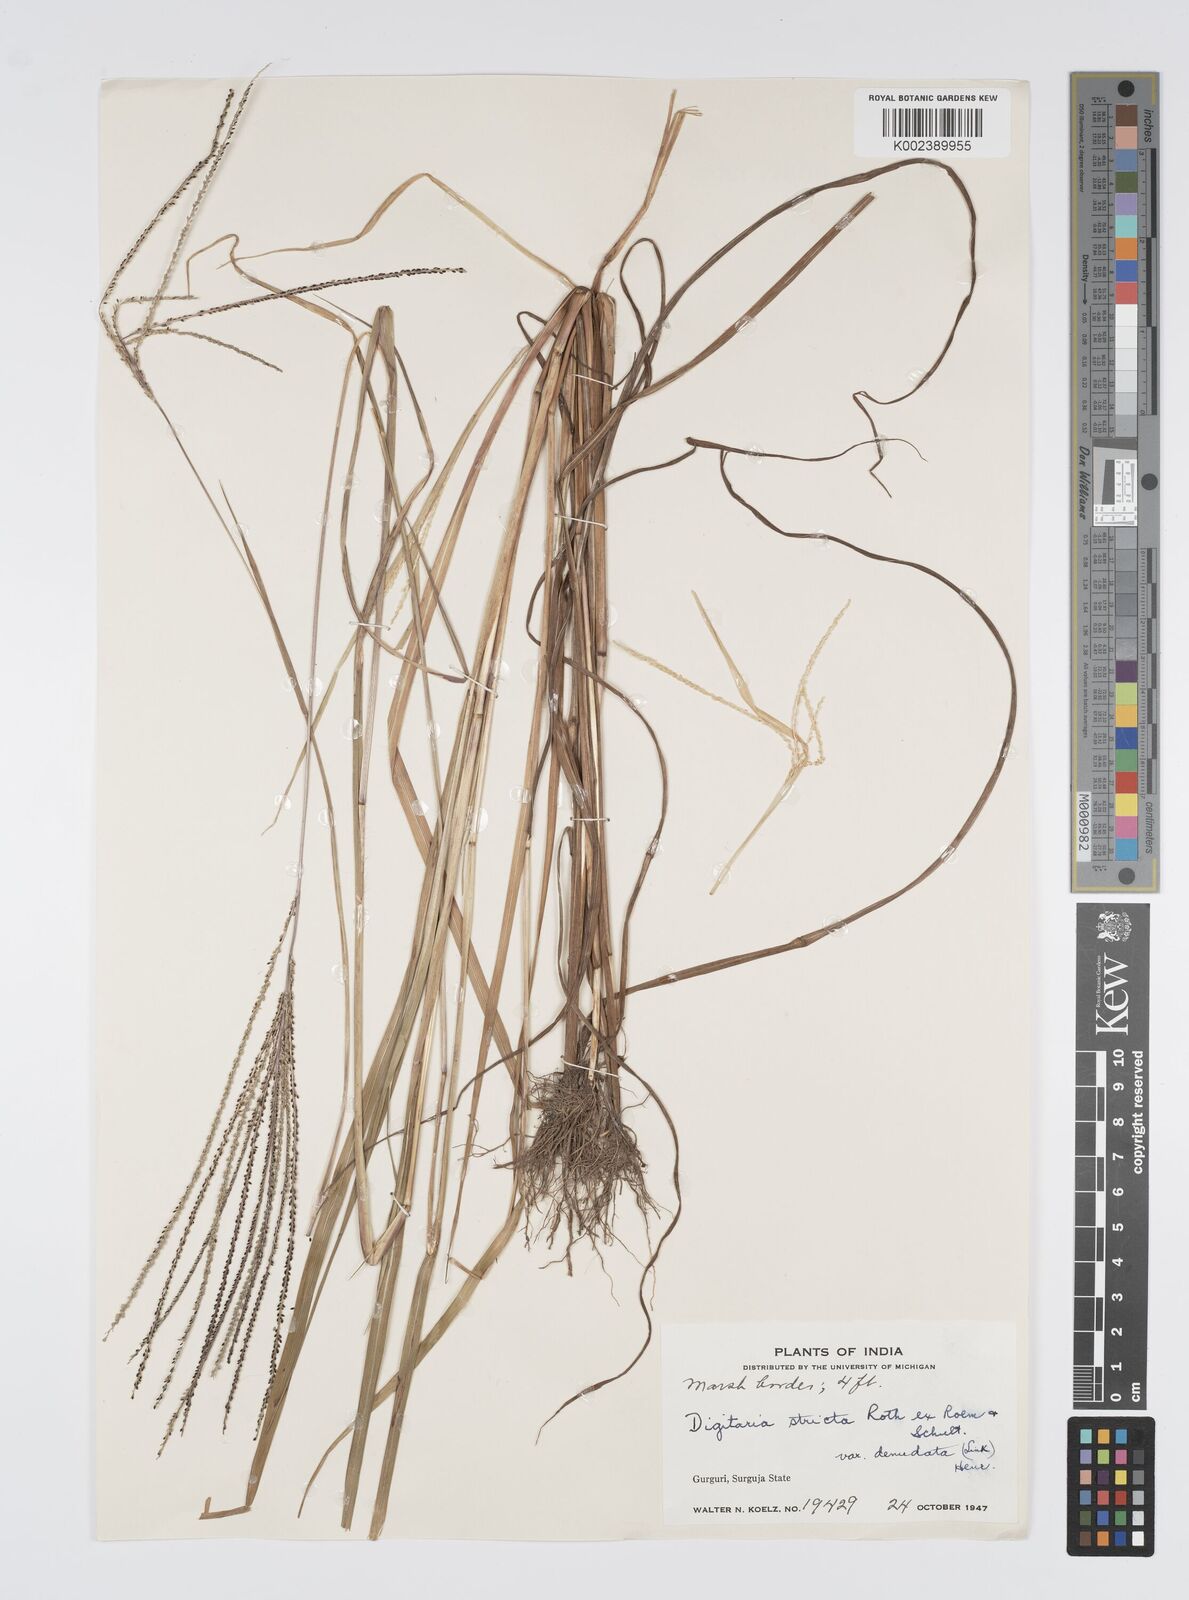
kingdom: Plantae
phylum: Tracheophyta
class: Liliopsida
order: Poales
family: Poaceae
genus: Digitaria
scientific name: Digitaria stricta
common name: Crabgrass
